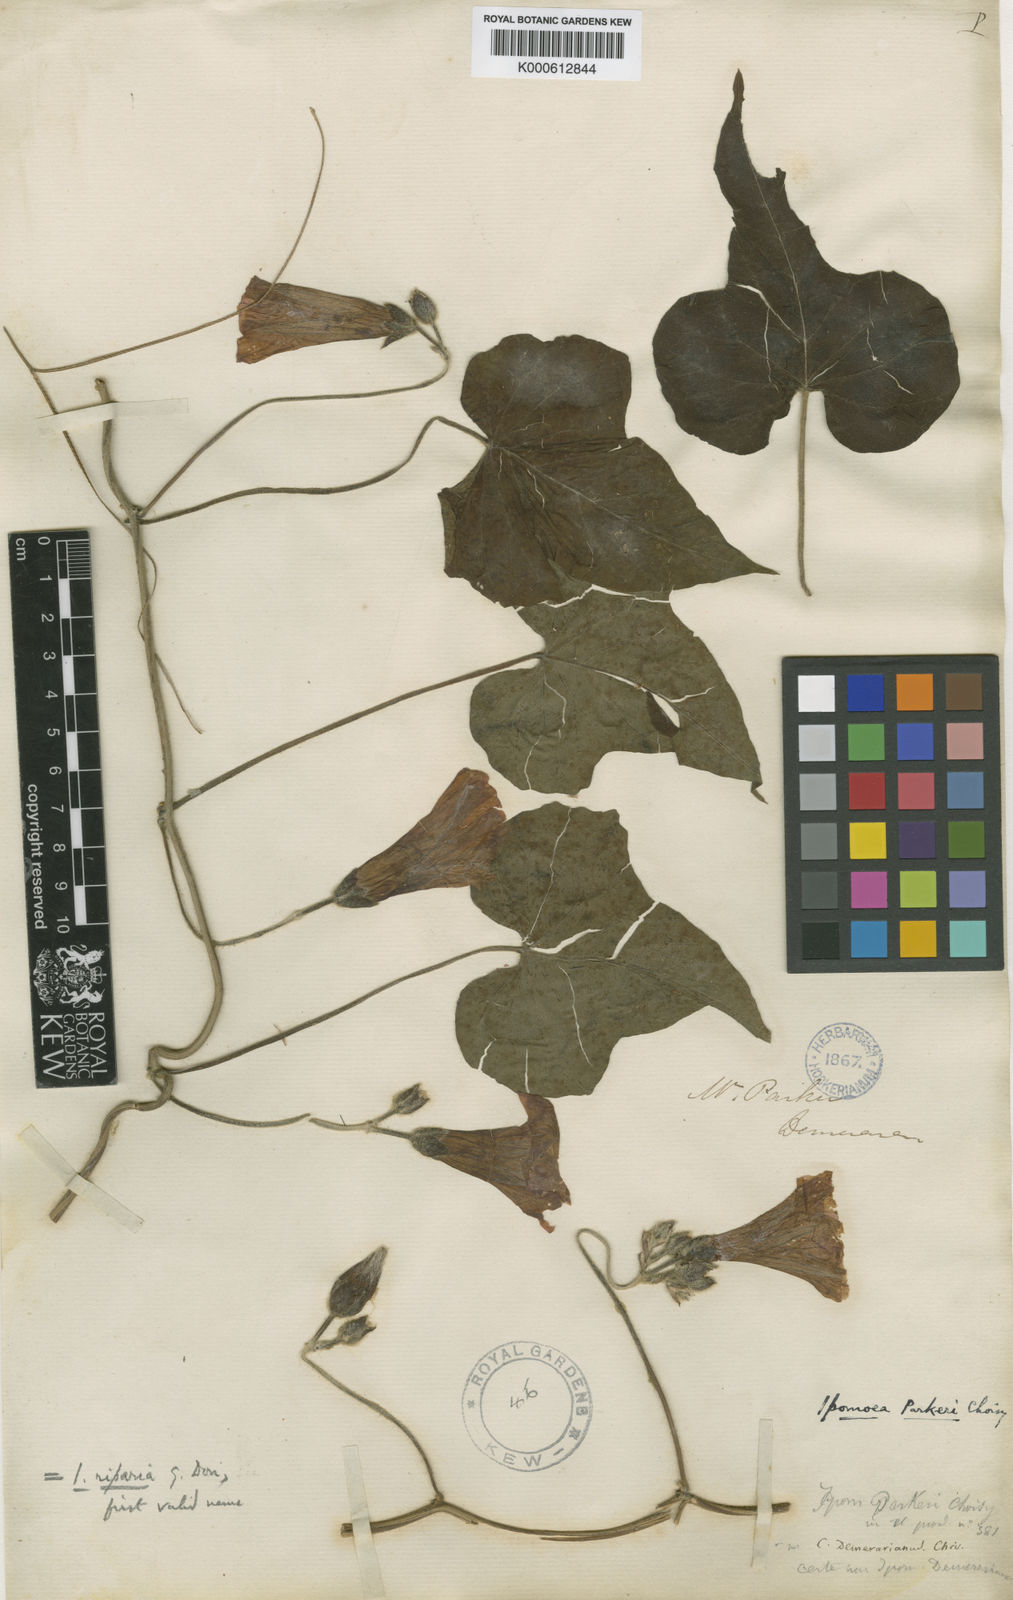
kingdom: Plantae
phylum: Tracheophyta
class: Magnoliopsida
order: Solanales
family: Convolvulaceae
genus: Ipomoea
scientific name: Ipomoea rubens
